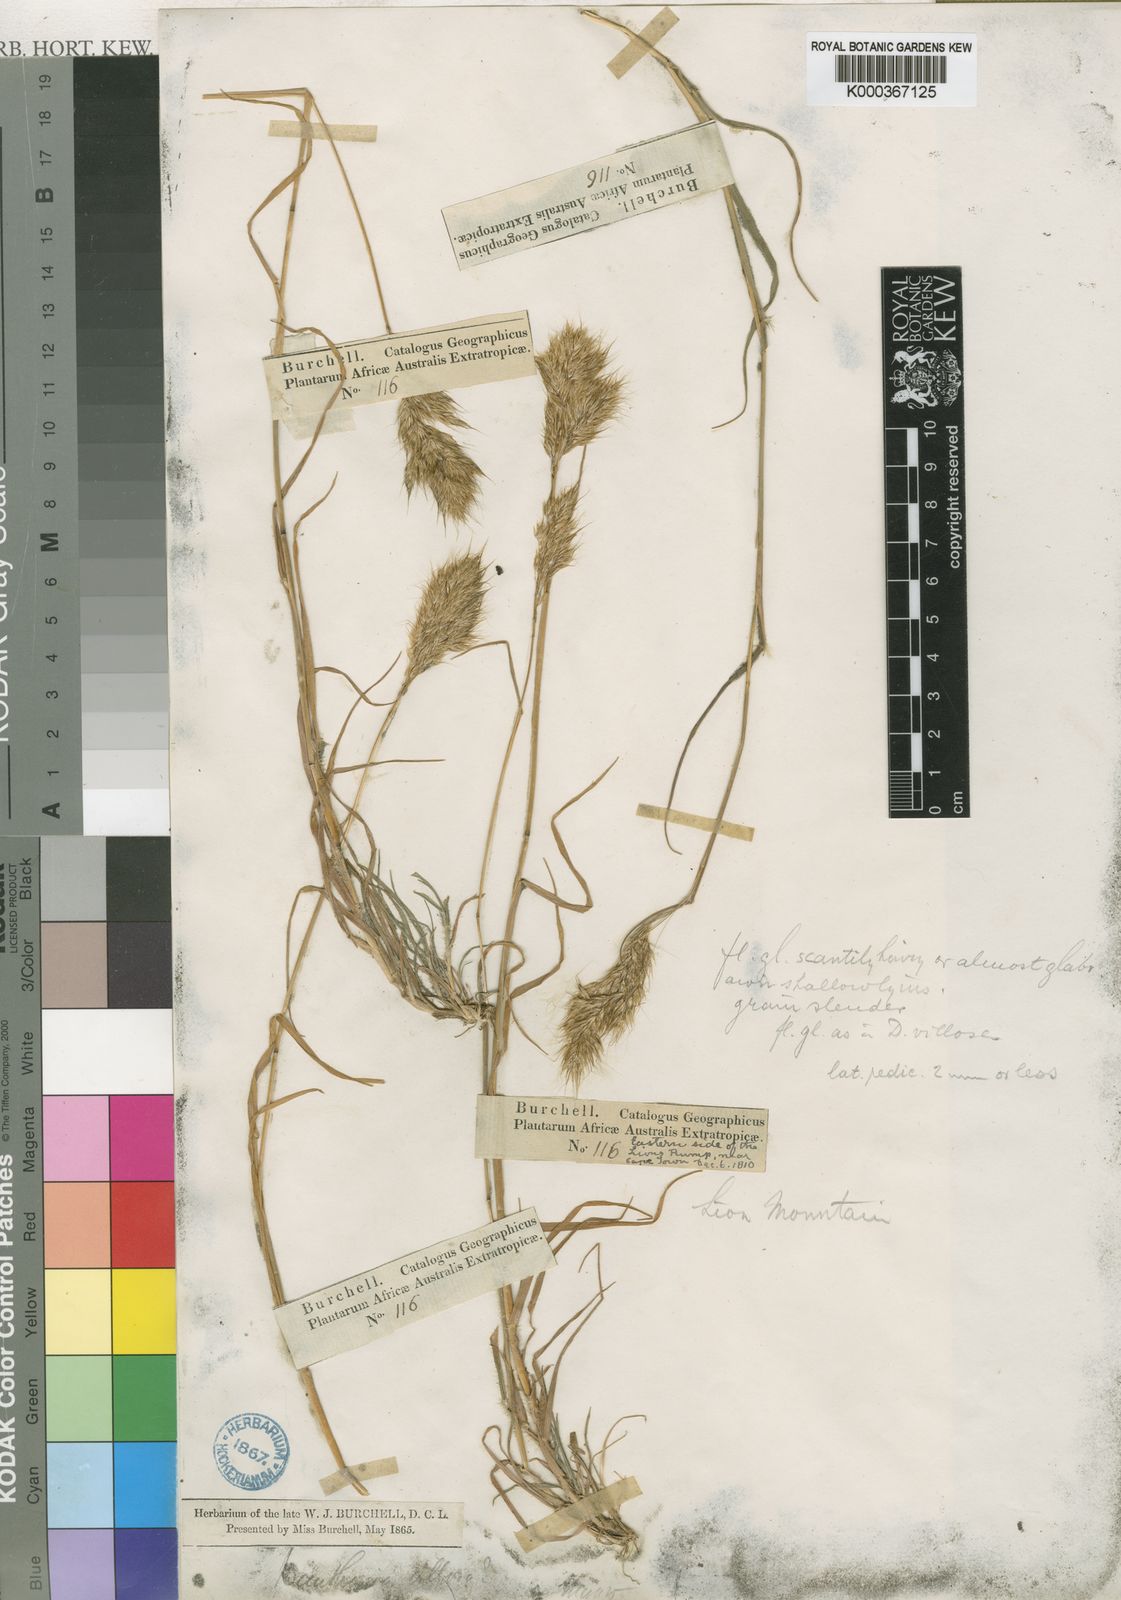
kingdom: Plantae
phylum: Tracheophyta
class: Liliopsida
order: Poales
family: Poaceae
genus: Pentameris
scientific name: Pentameris triseta
